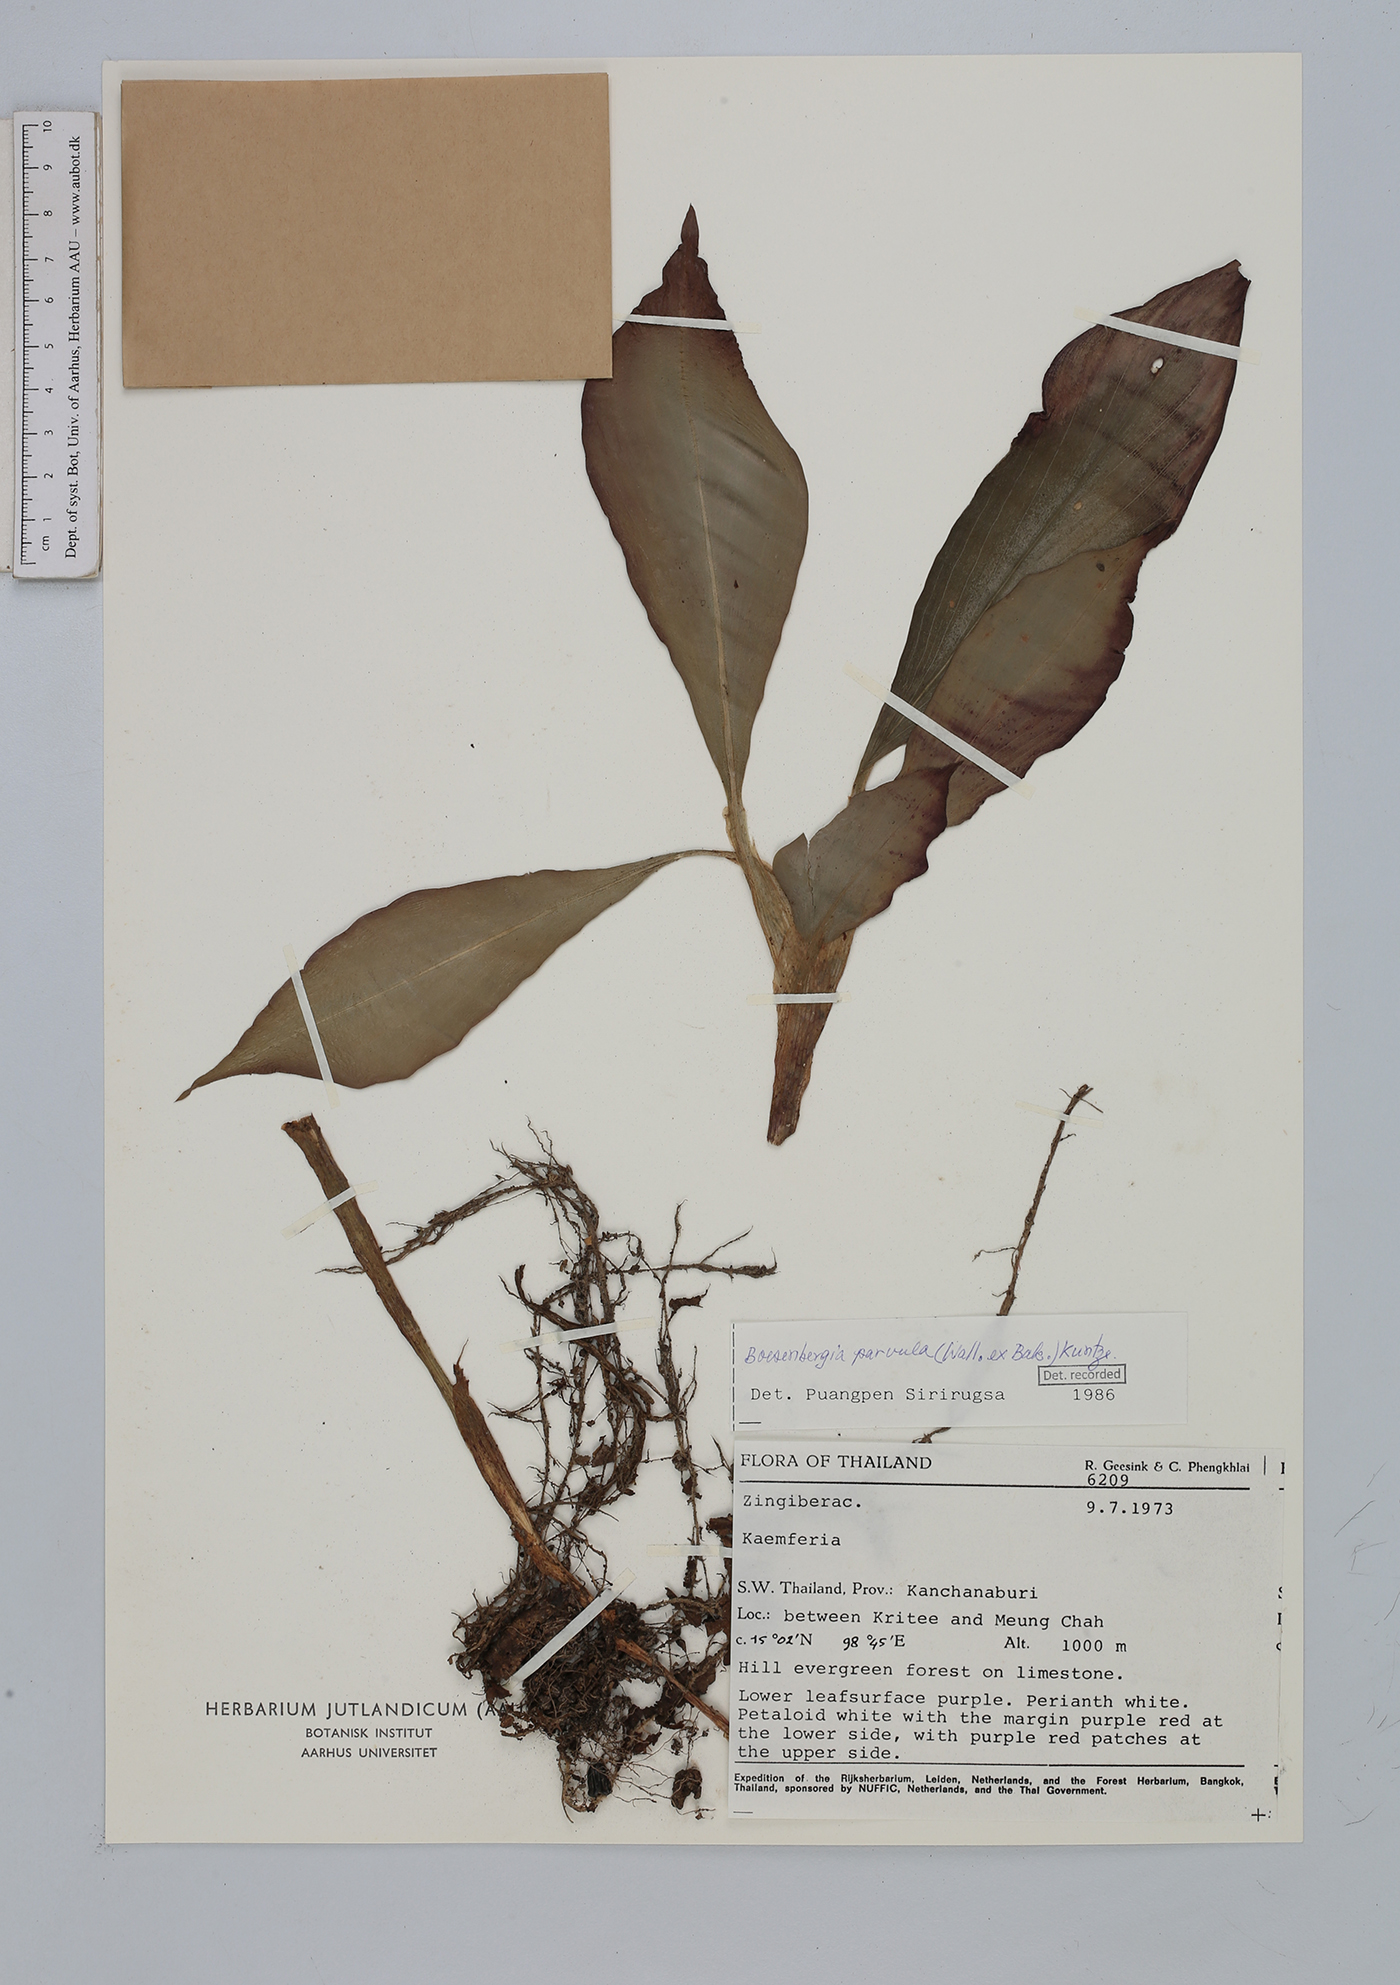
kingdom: Plantae
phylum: Tracheophyta
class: Liliopsida
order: Zingiberales
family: Zingiberaceae
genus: Boesenbergia
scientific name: Boesenbergia parvula
